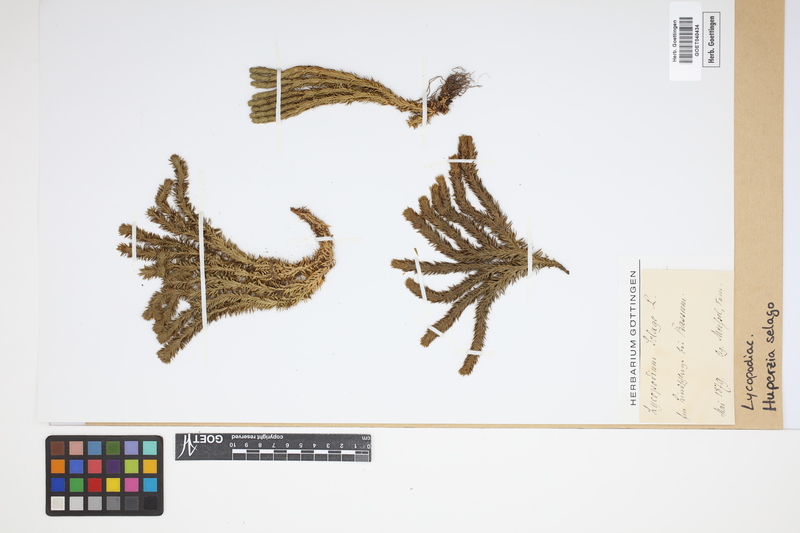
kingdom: Plantae
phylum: Tracheophyta
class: Lycopodiopsida
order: Lycopodiales
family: Lycopodiaceae
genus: Huperzia
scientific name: Huperzia selago
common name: Northern firmoss
